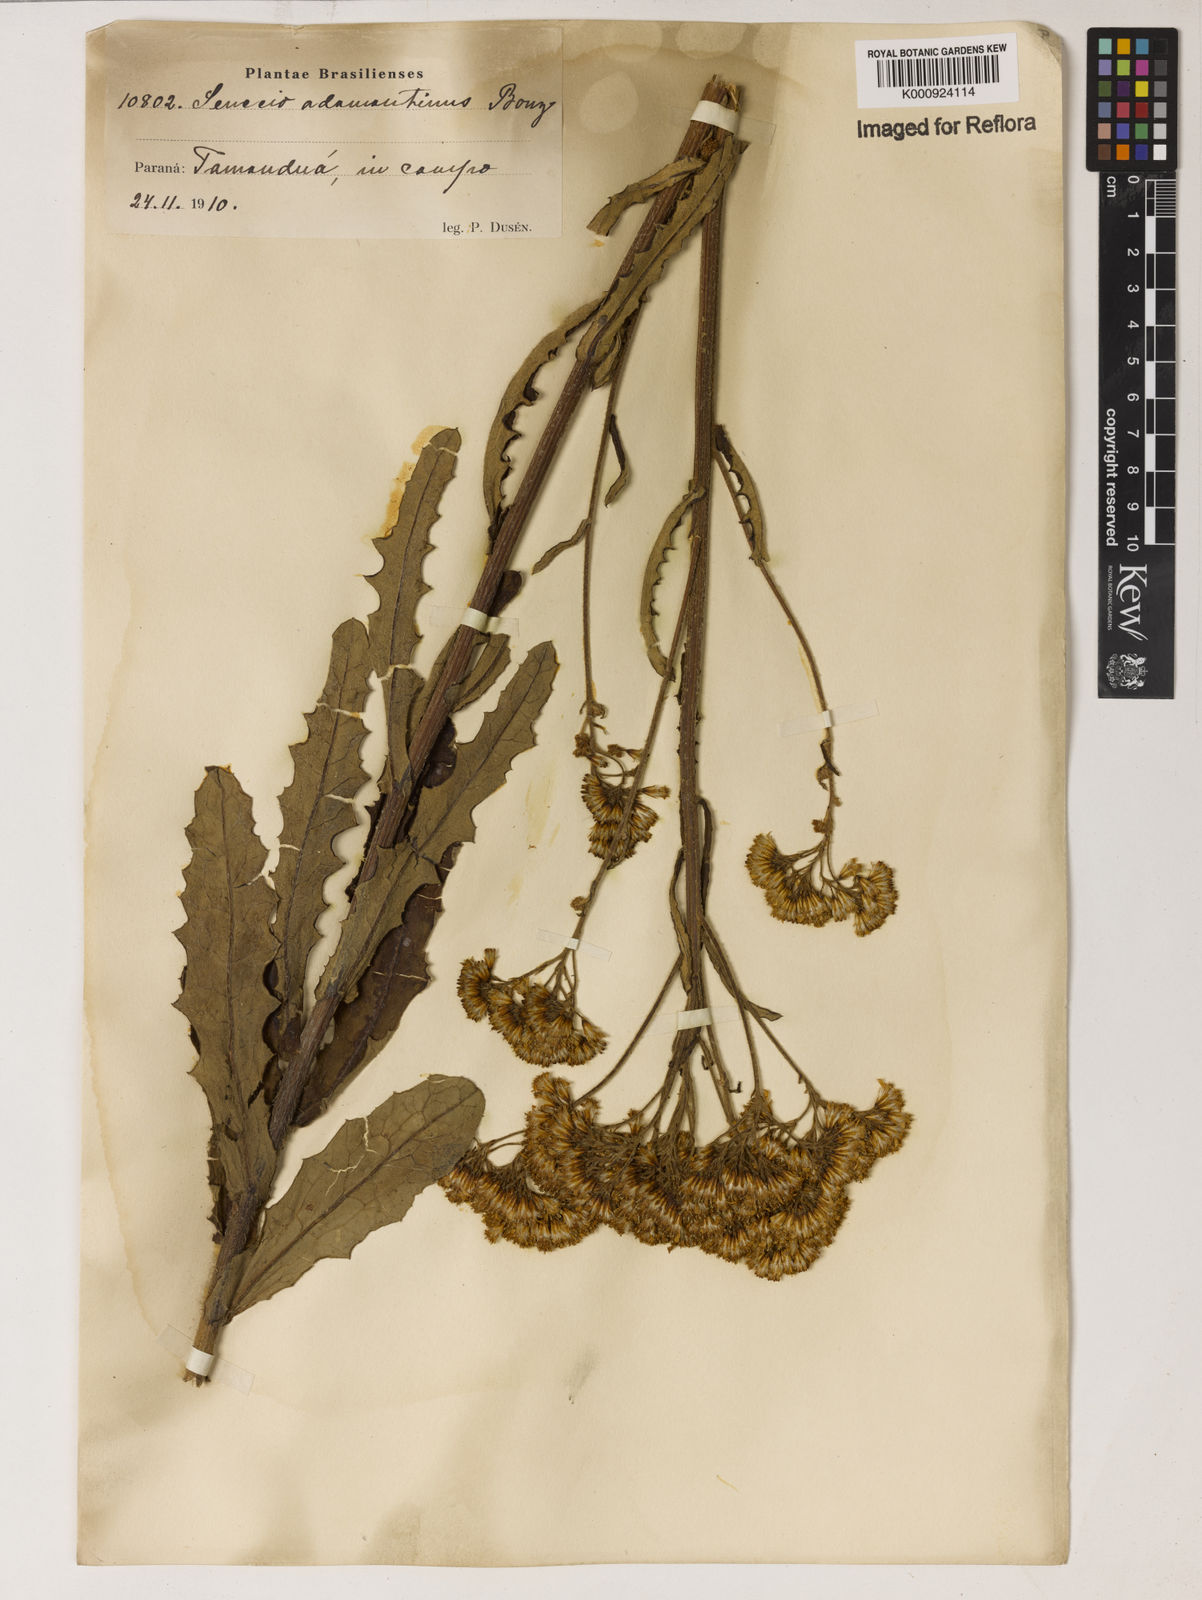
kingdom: Plantae
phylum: Tracheophyta
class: Magnoliopsida
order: Asterales
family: Asteraceae
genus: Senecio
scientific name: Senecio
